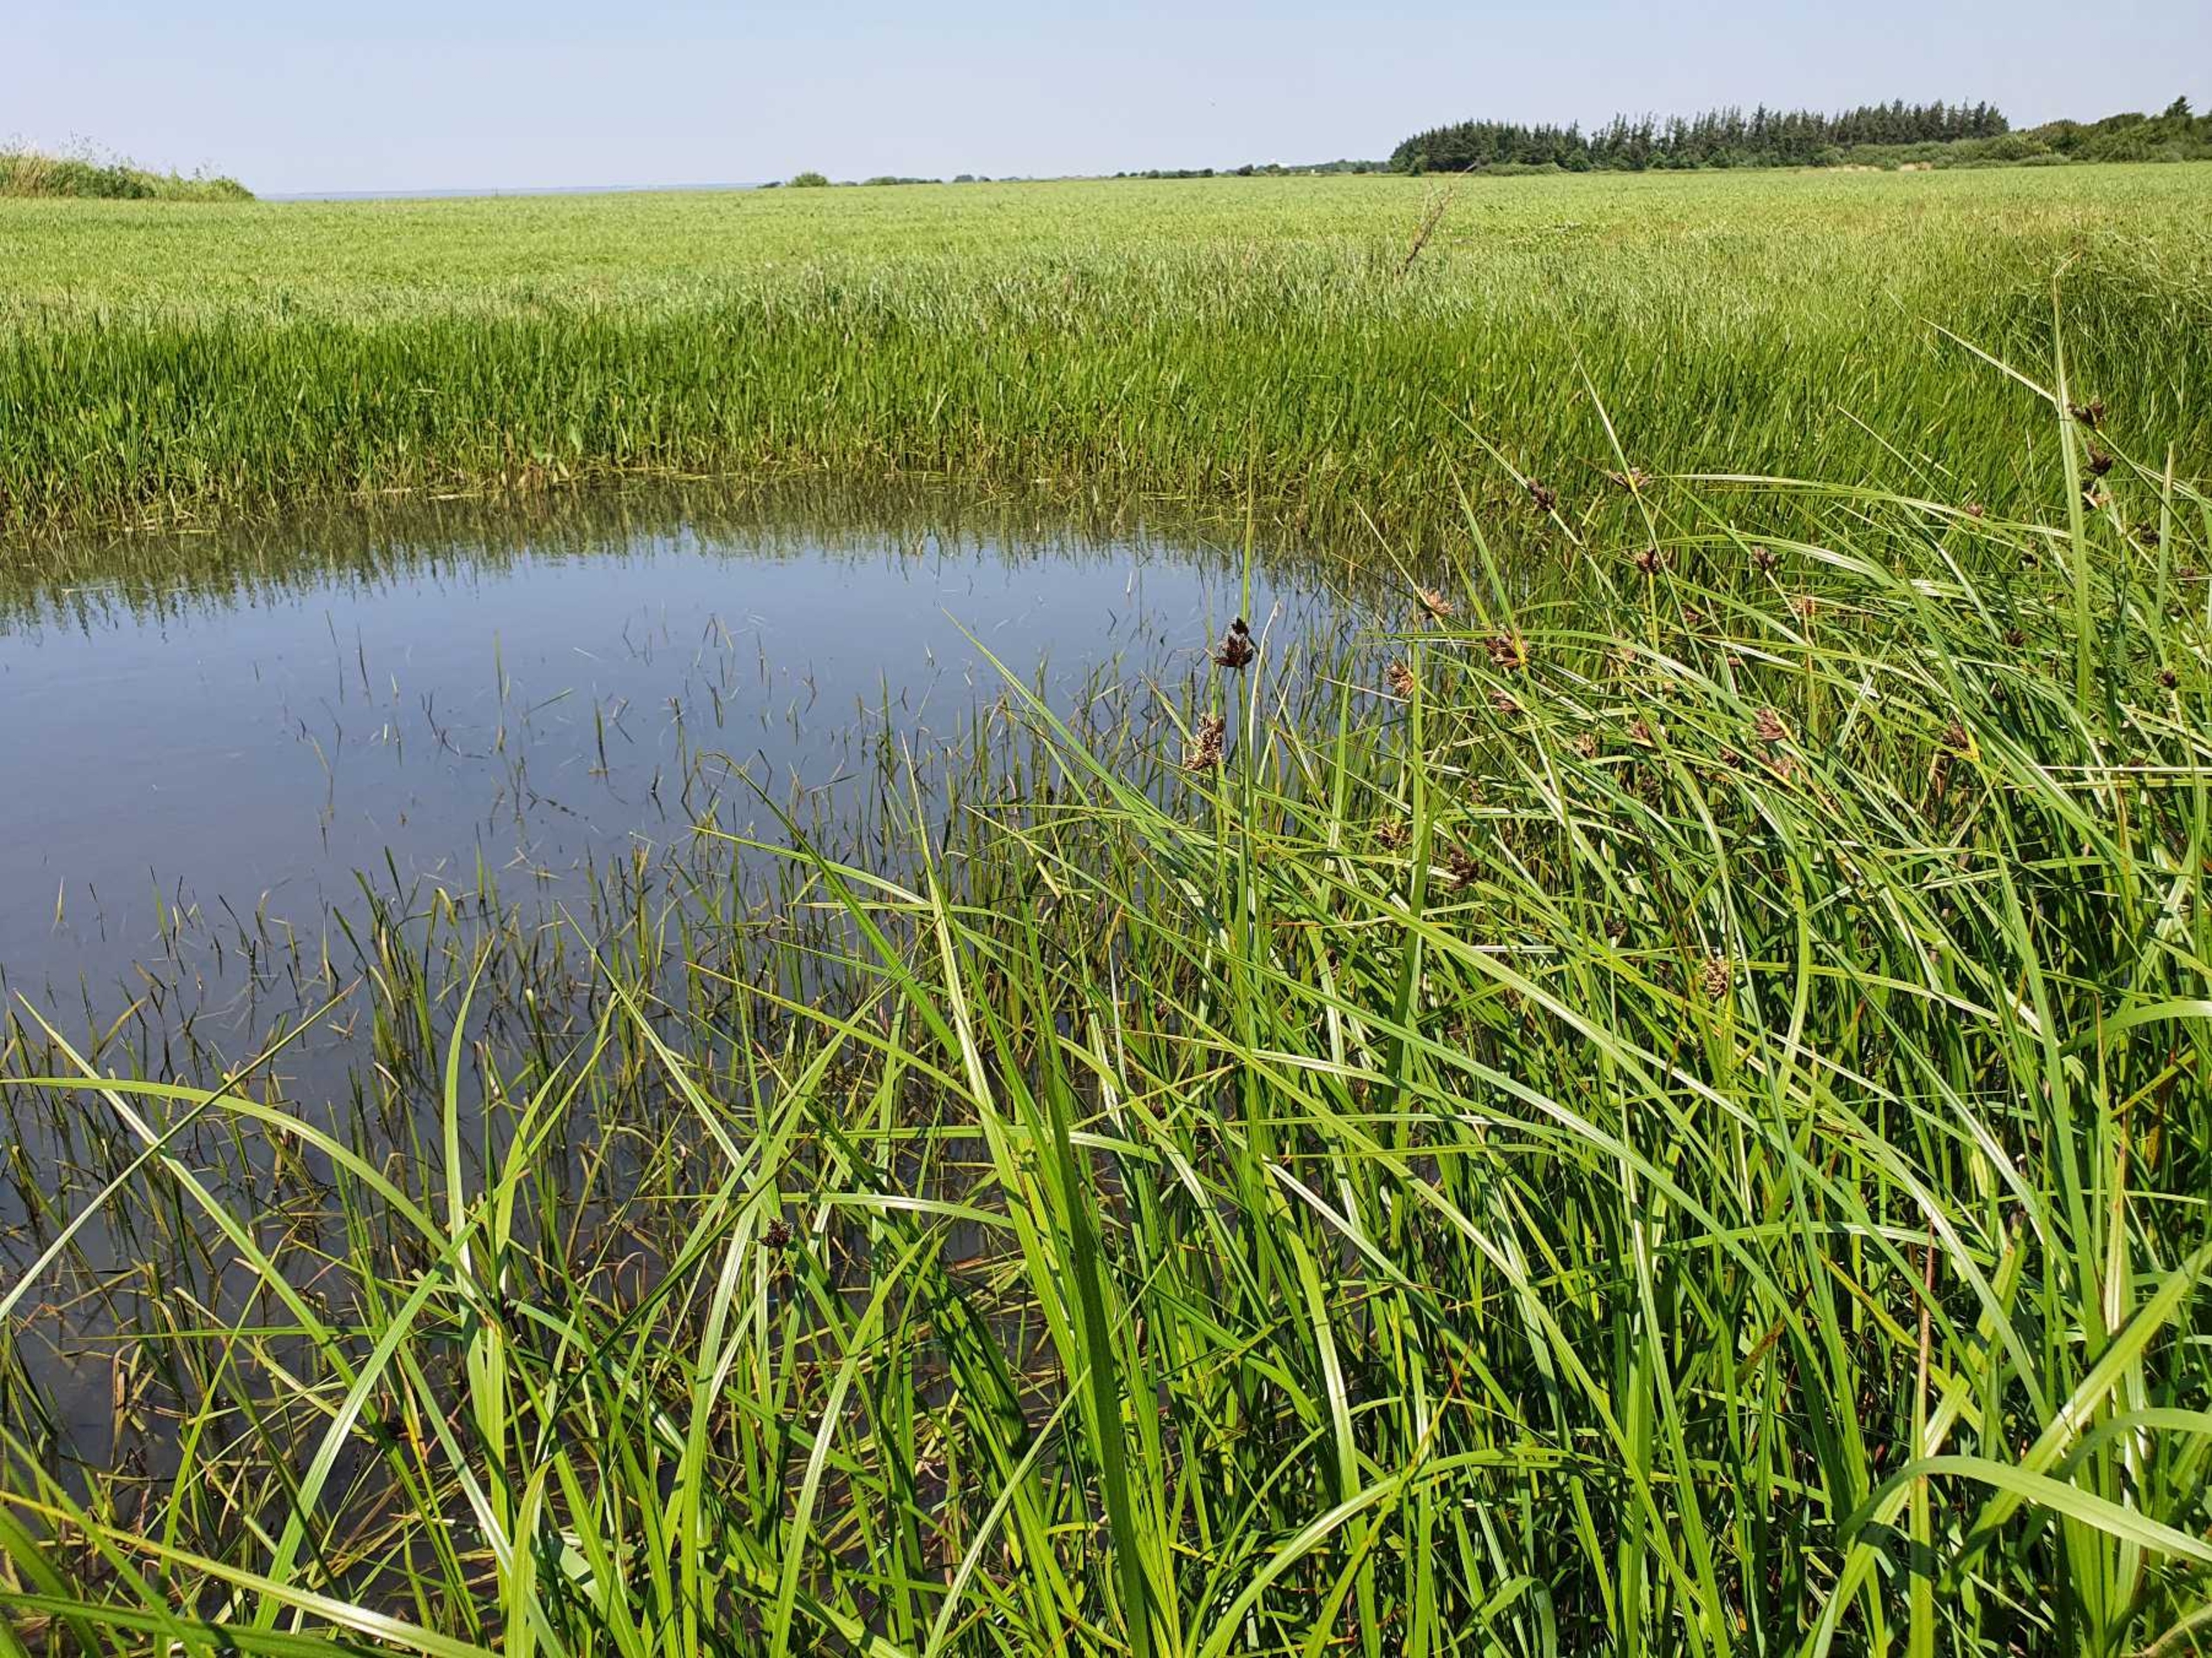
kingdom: Plantae
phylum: Tracheophyta
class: Liliopsida
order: Poales
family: Cyperaceae
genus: Bolboschoenus
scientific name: Bolboschoenus maritimus
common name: Strand-kogleaks
